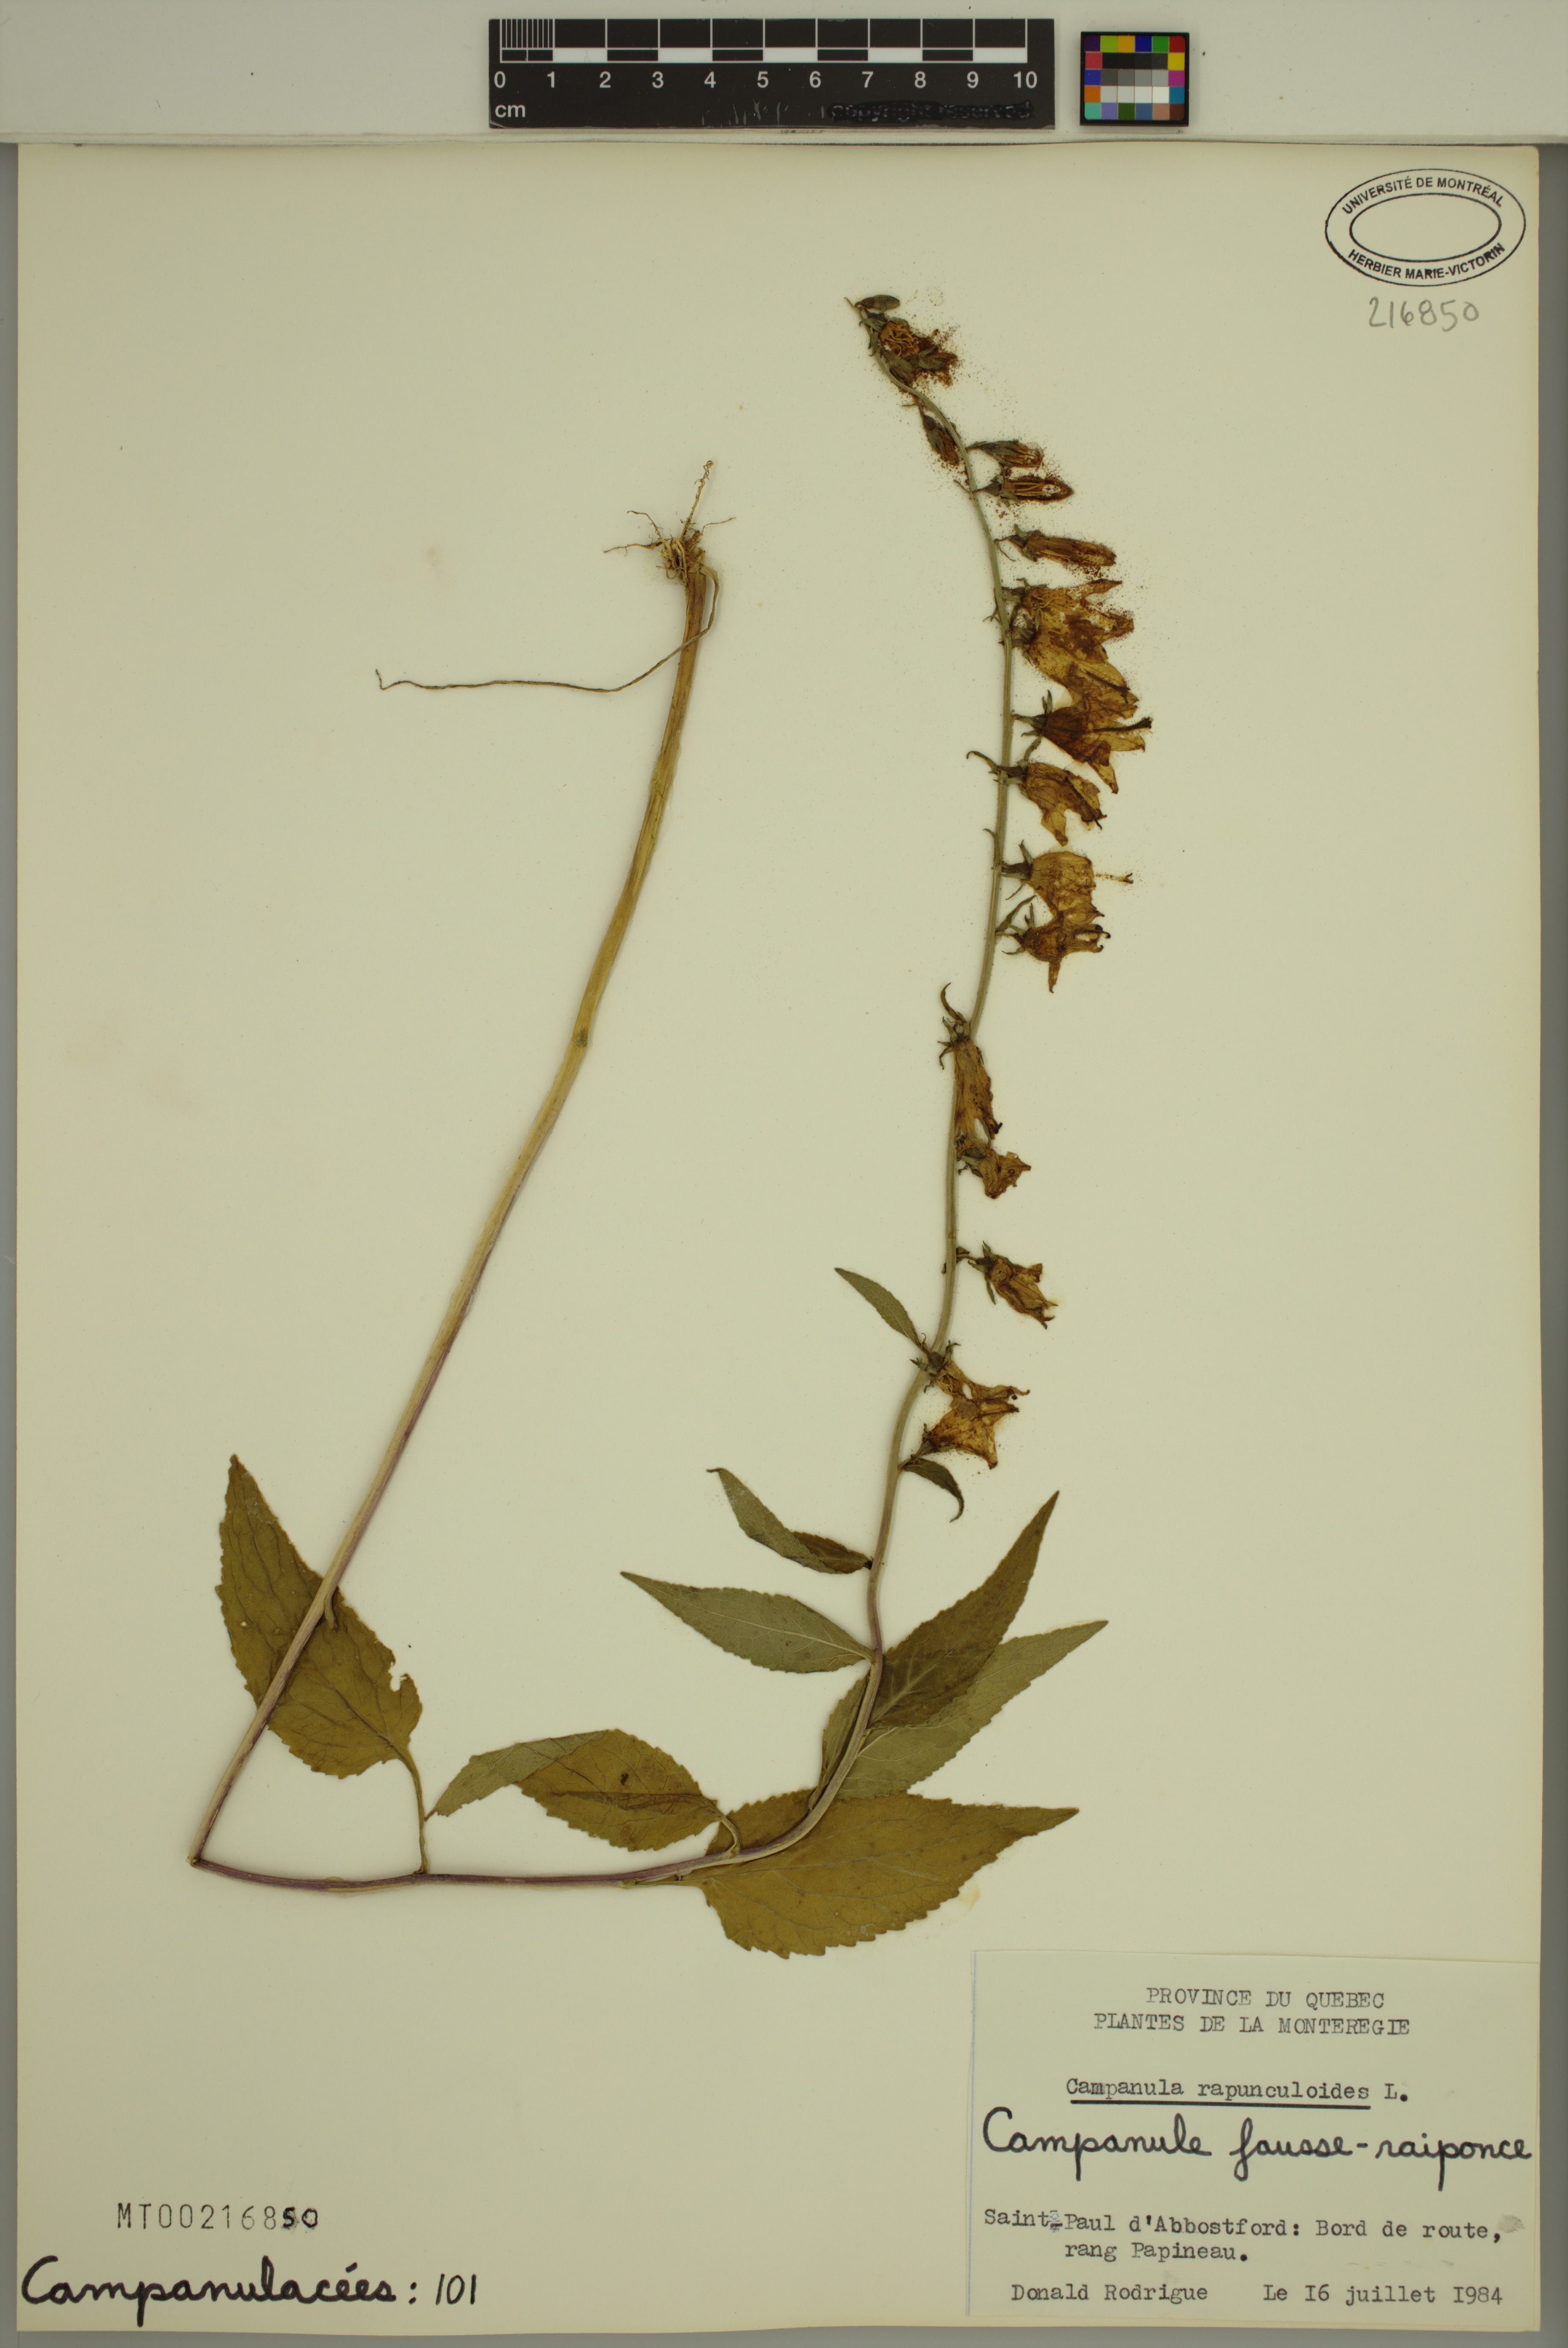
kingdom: Plantae
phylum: Tracheophyta
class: Magnoliopsida
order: Asterales
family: Campanulaceae
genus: Campanula
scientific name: Campanula rapunculoides
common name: Creeping bellflower
